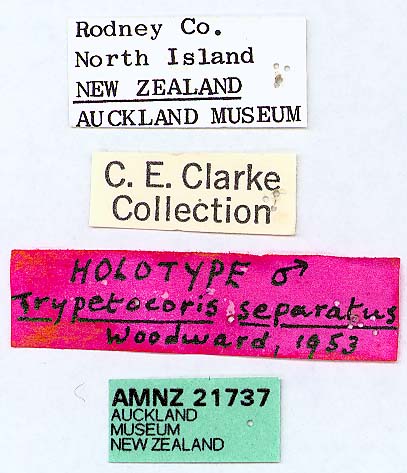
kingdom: Animalia
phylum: Arthropoda
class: Insecta
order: Hemiptera
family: Rhyparochromidae
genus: Trypetocoris
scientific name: Trypetocoris separatus
